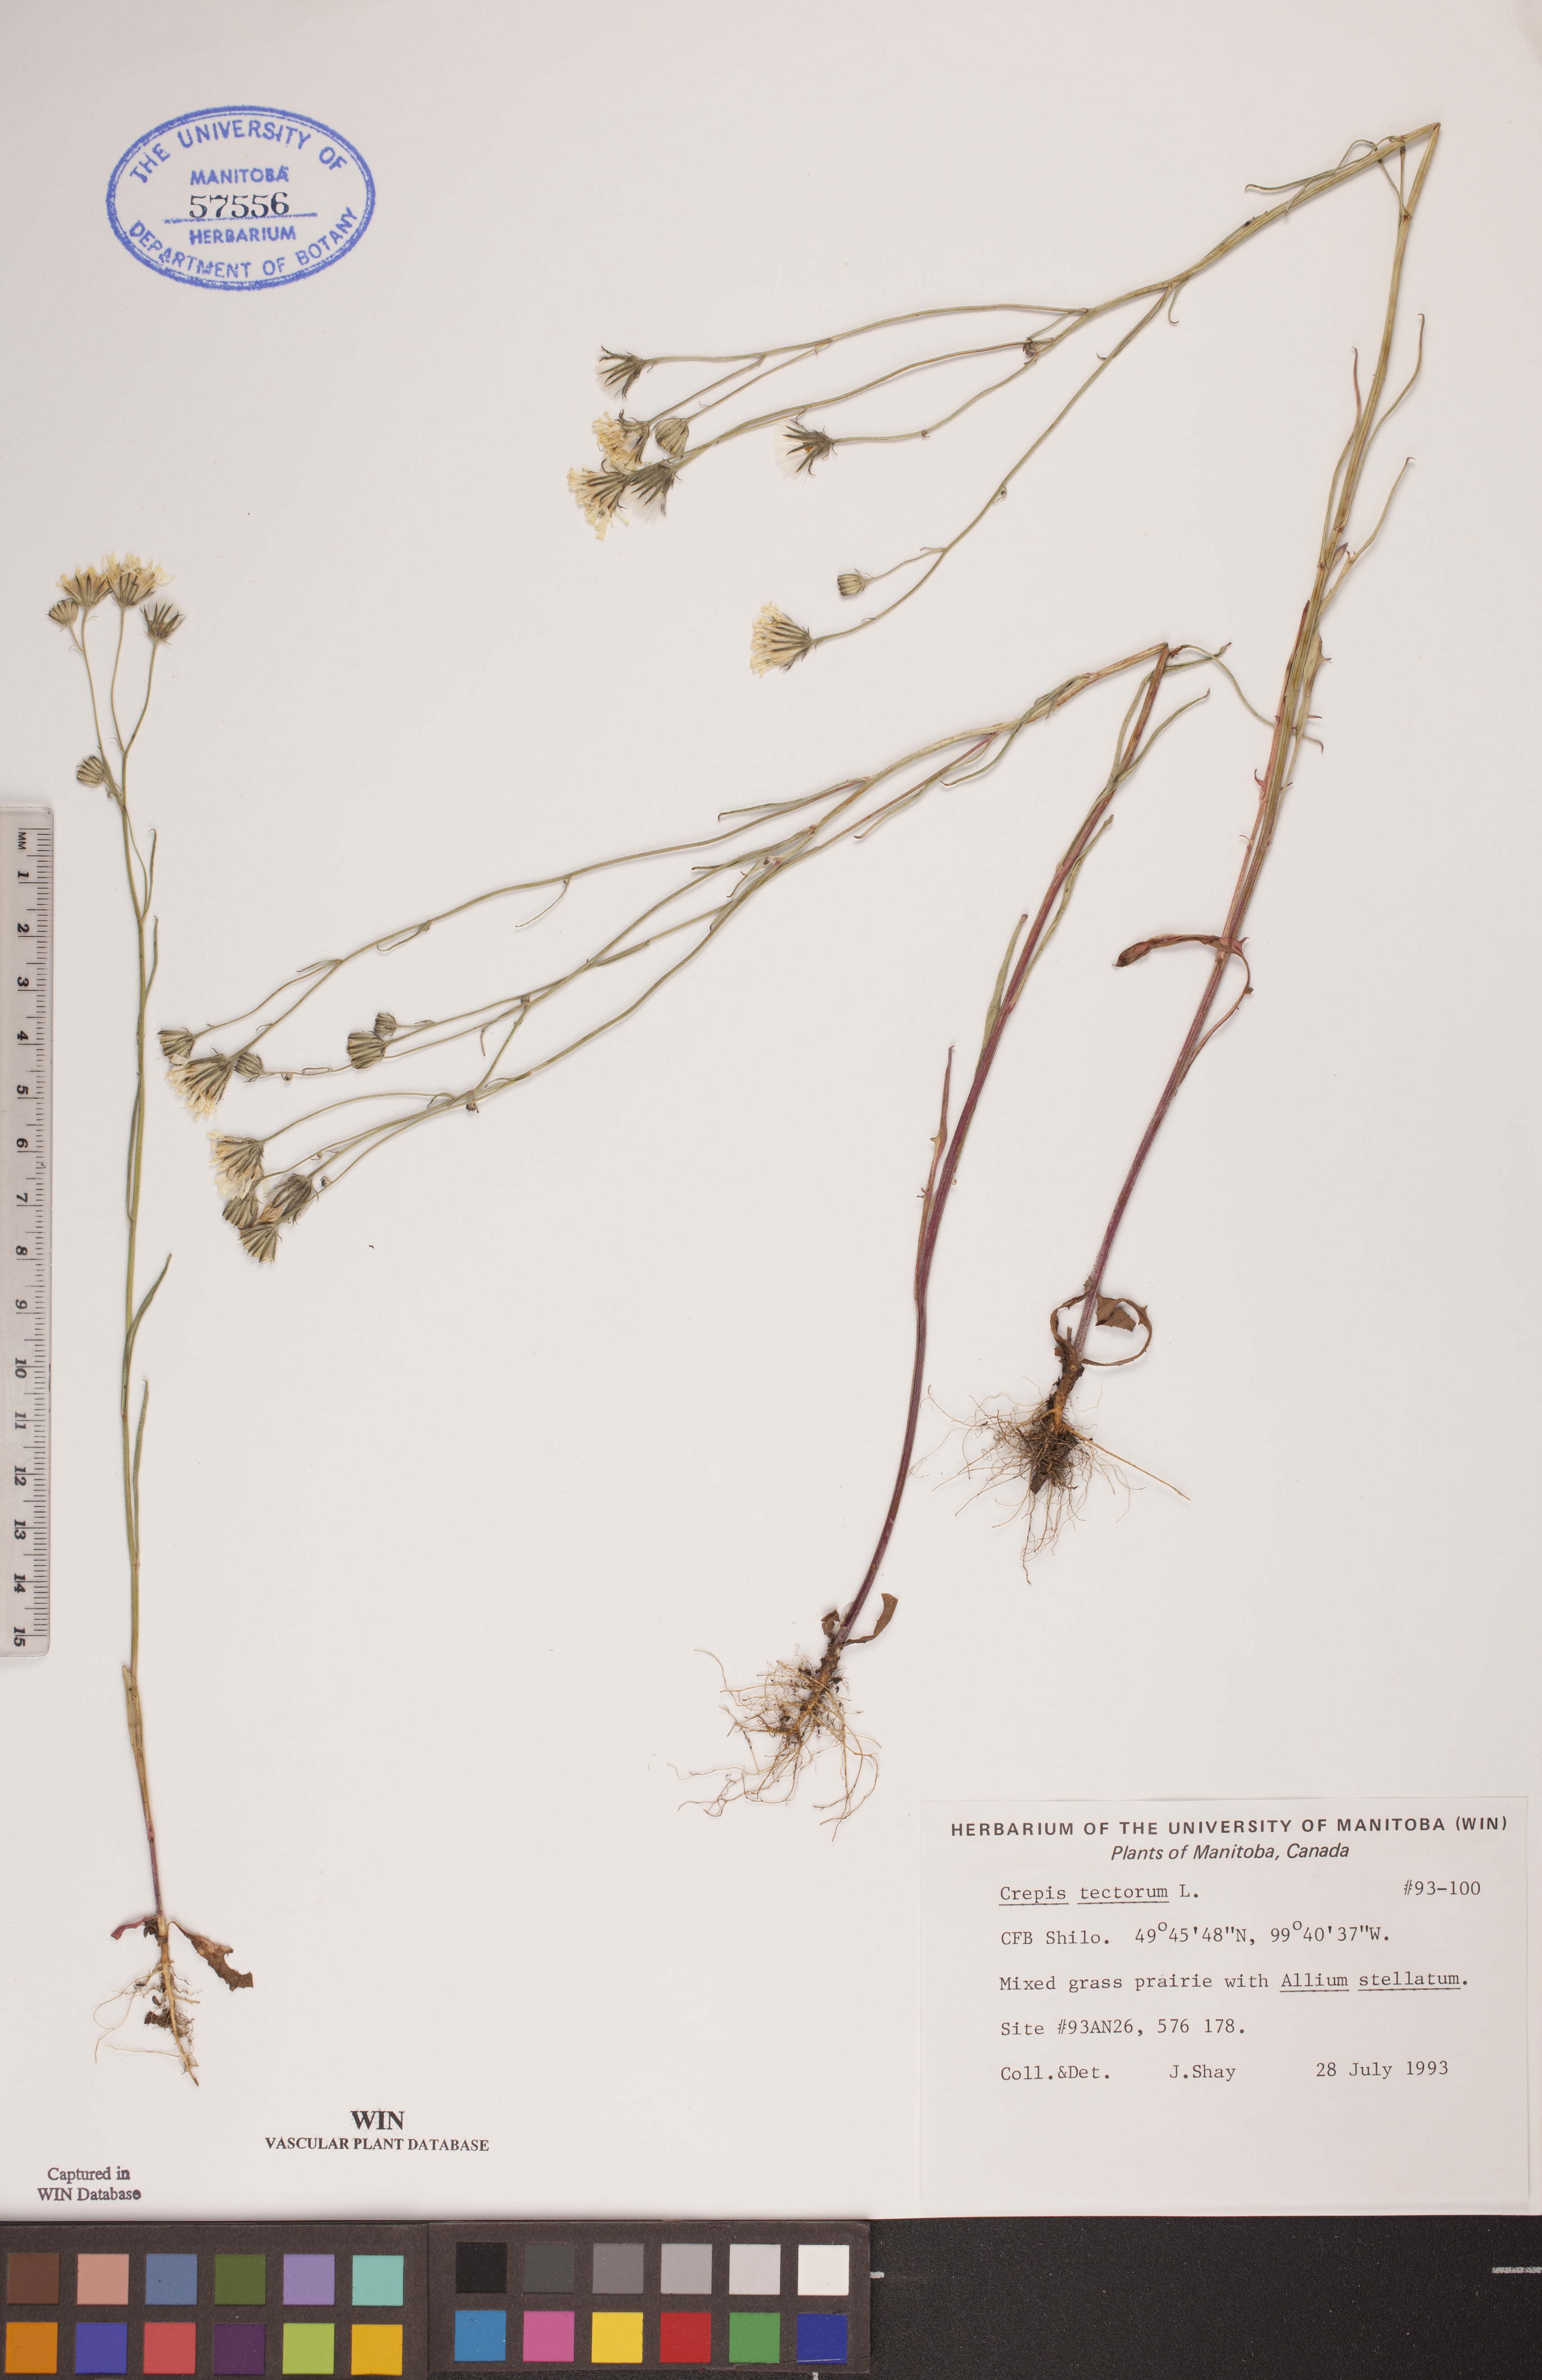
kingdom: Plantae
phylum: Tracheophyta
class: Magnoliopsida
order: Asterales
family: Asteraceae
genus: Crepis
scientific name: Crepis tectorum
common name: Narrow-leaved hawk's-beard
